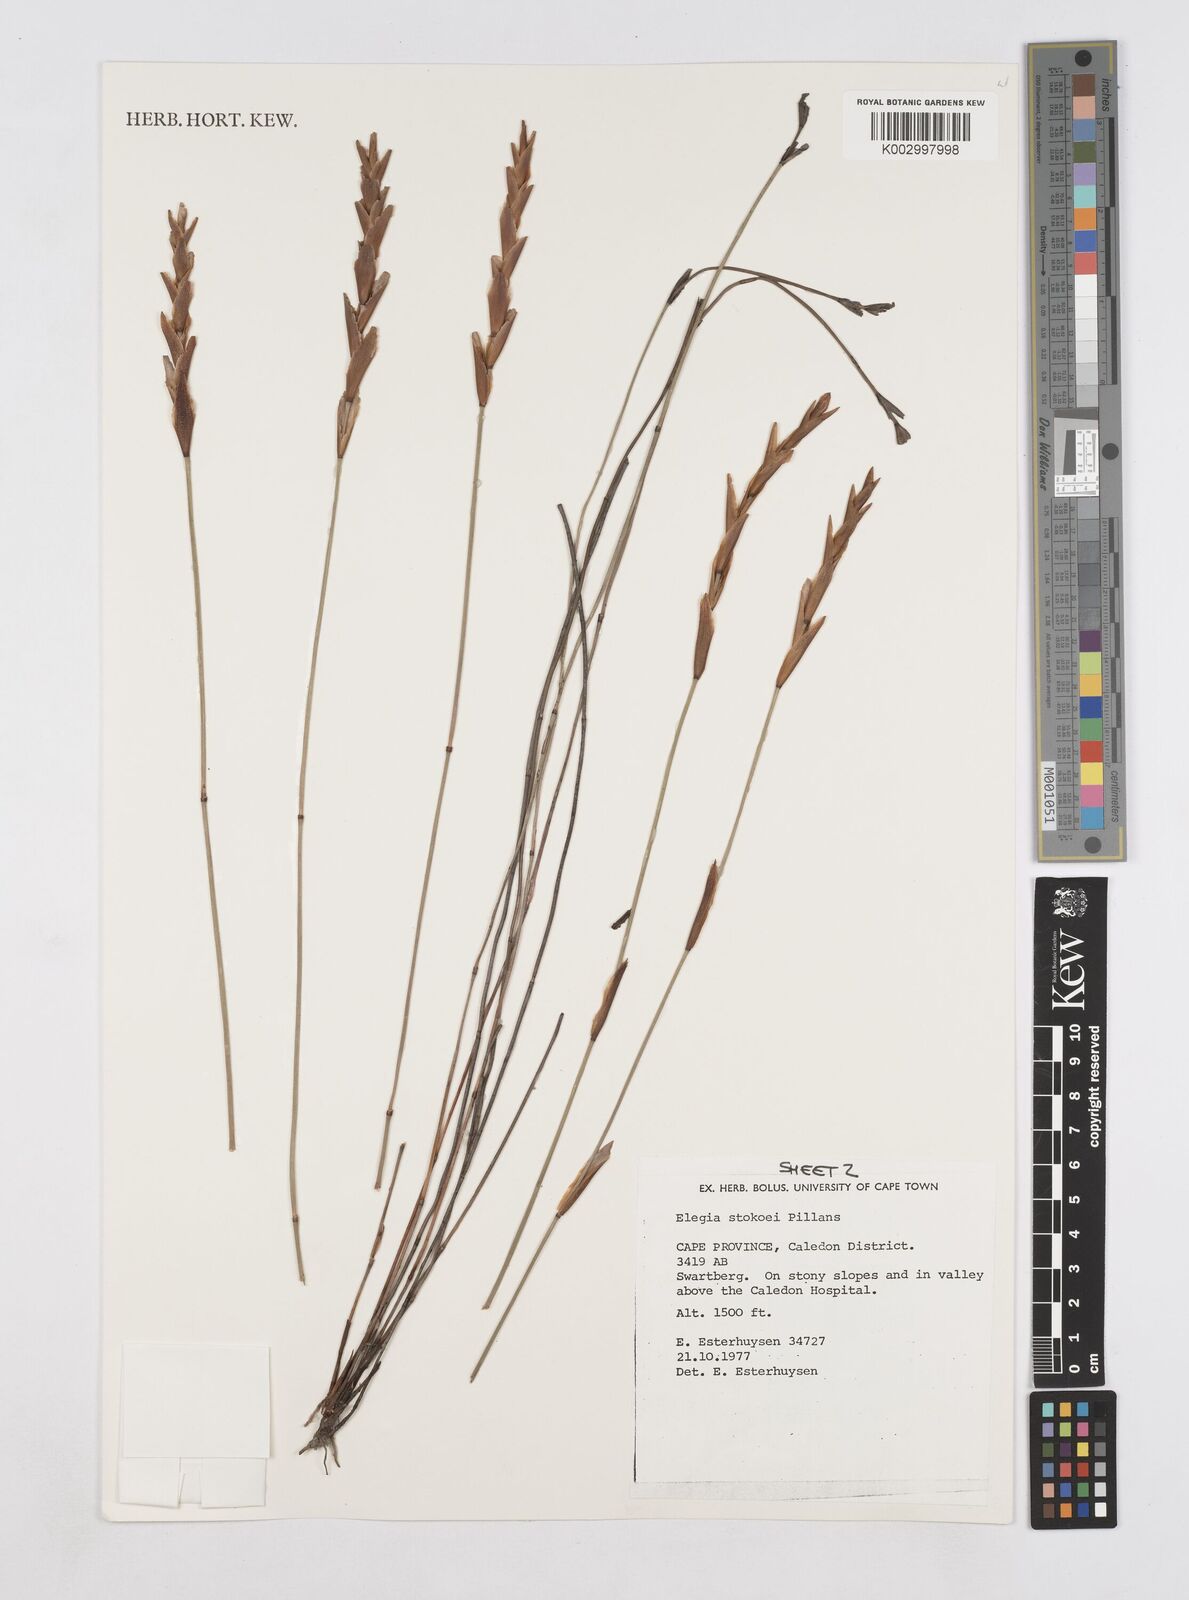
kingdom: Plantae
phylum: Tracheophyta
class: Liliopsida
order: Poales
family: Restionaceae
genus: Elegia
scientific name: Elegia stokoei
